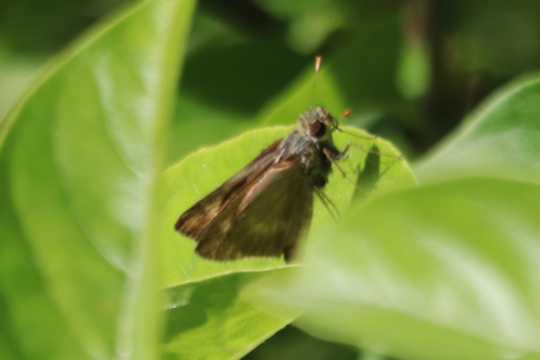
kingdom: Animalia
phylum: Arthropoda
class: Insecta
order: Lepidoptera
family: Hesperiidae
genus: Polites
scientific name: Polites egeremet
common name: Northern Broken-Dash
